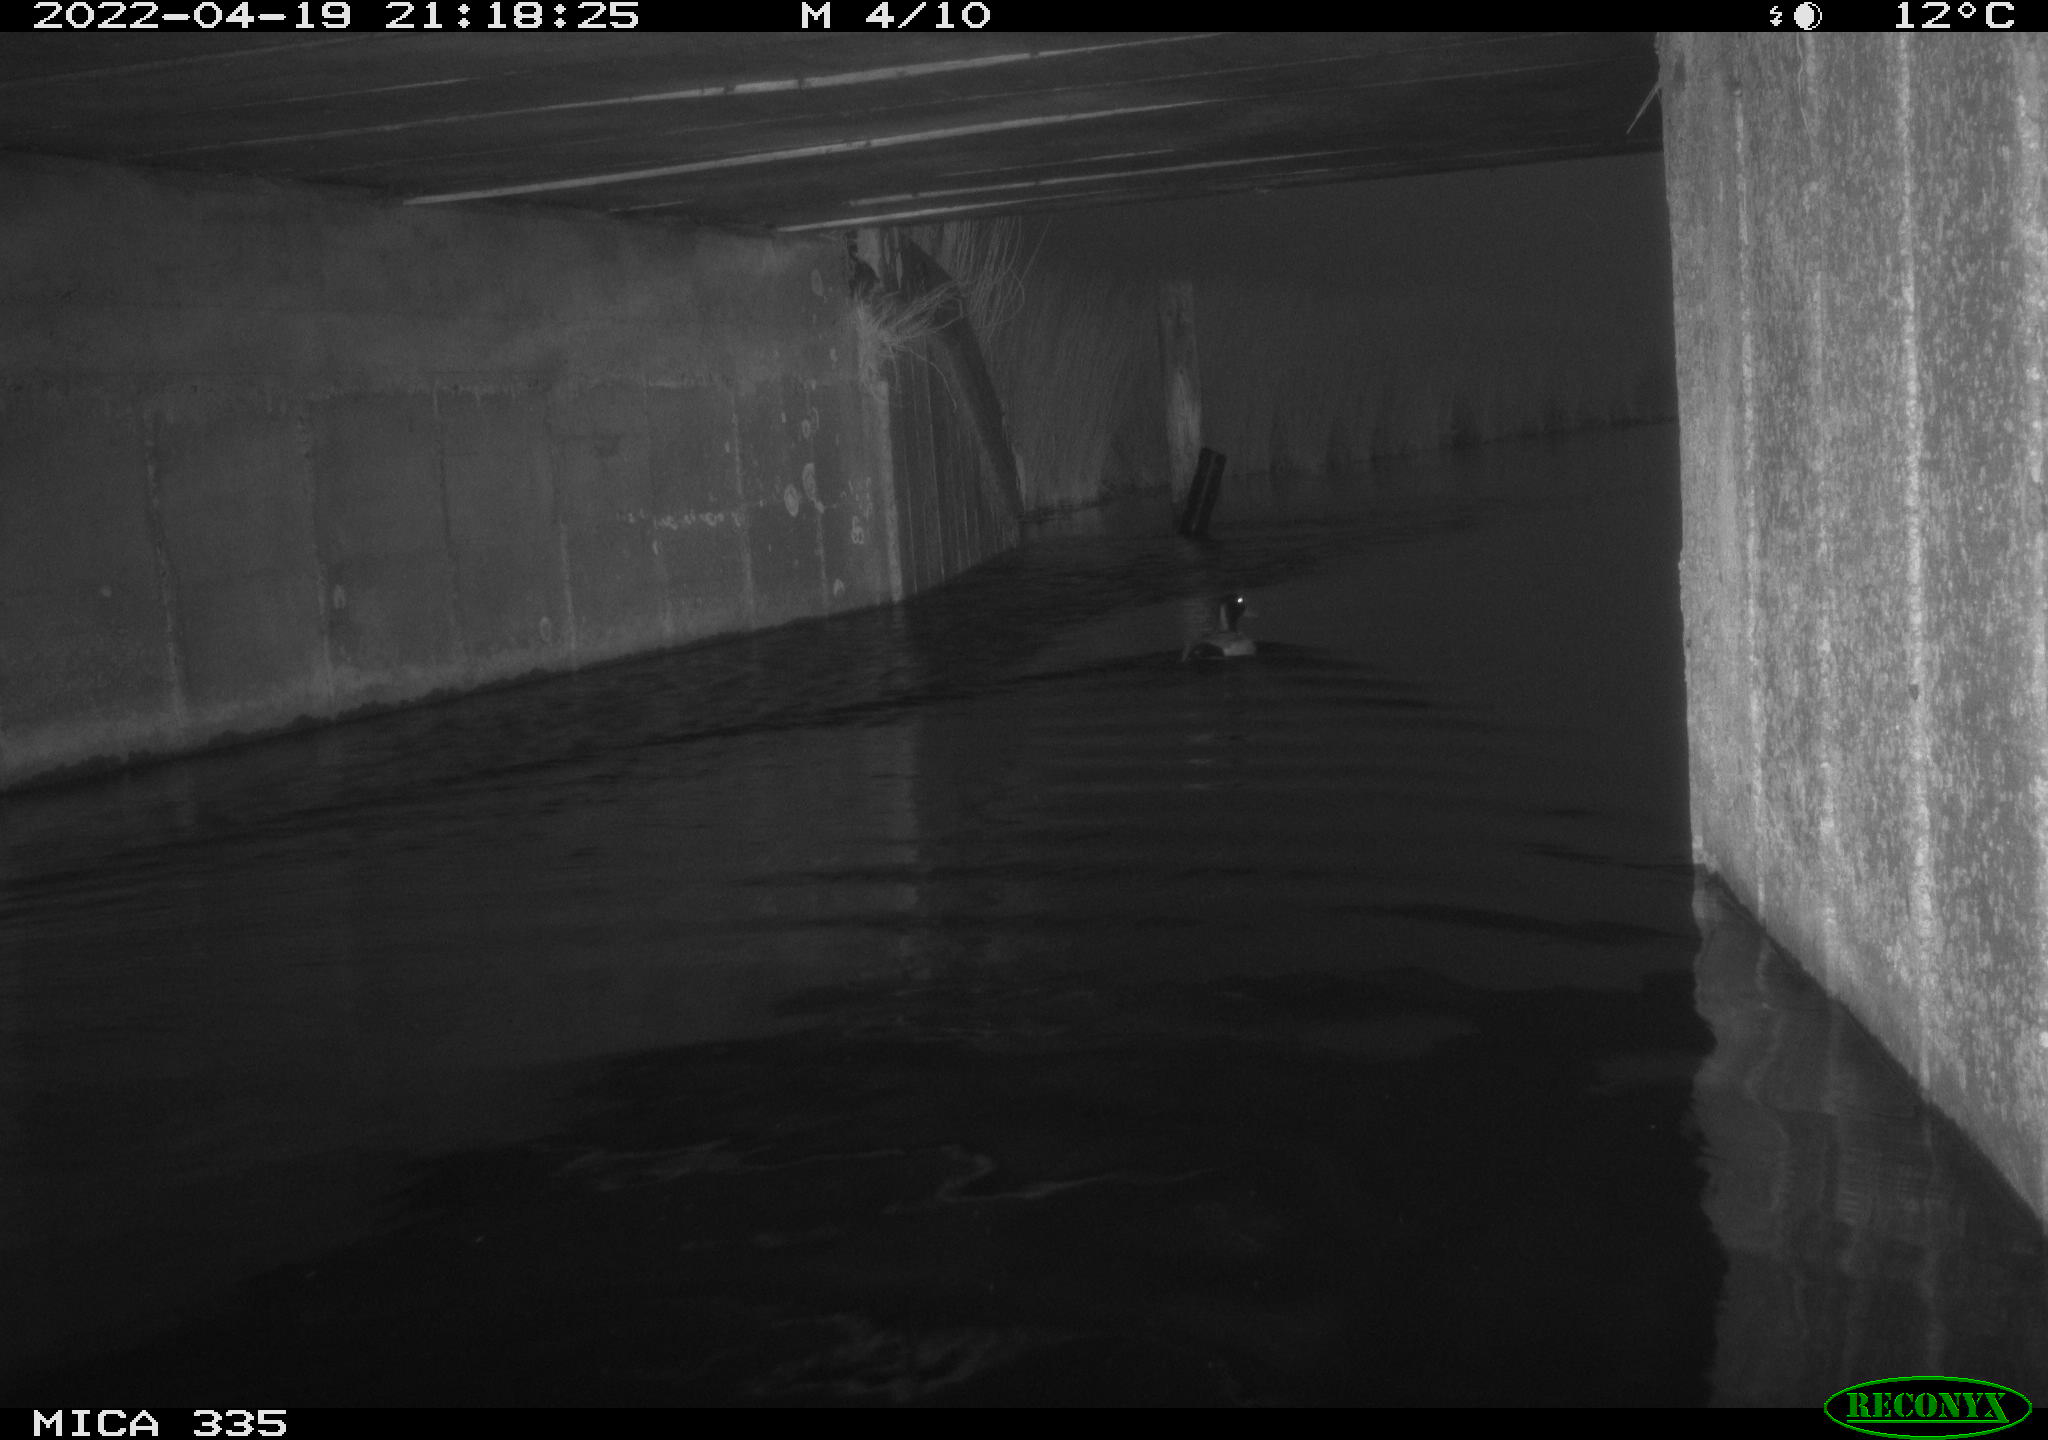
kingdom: Animalia
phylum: Chordata
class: Aves
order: Anseriformes
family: Anatidae
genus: Anas
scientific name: Anas platyrhynchos
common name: Mallard
